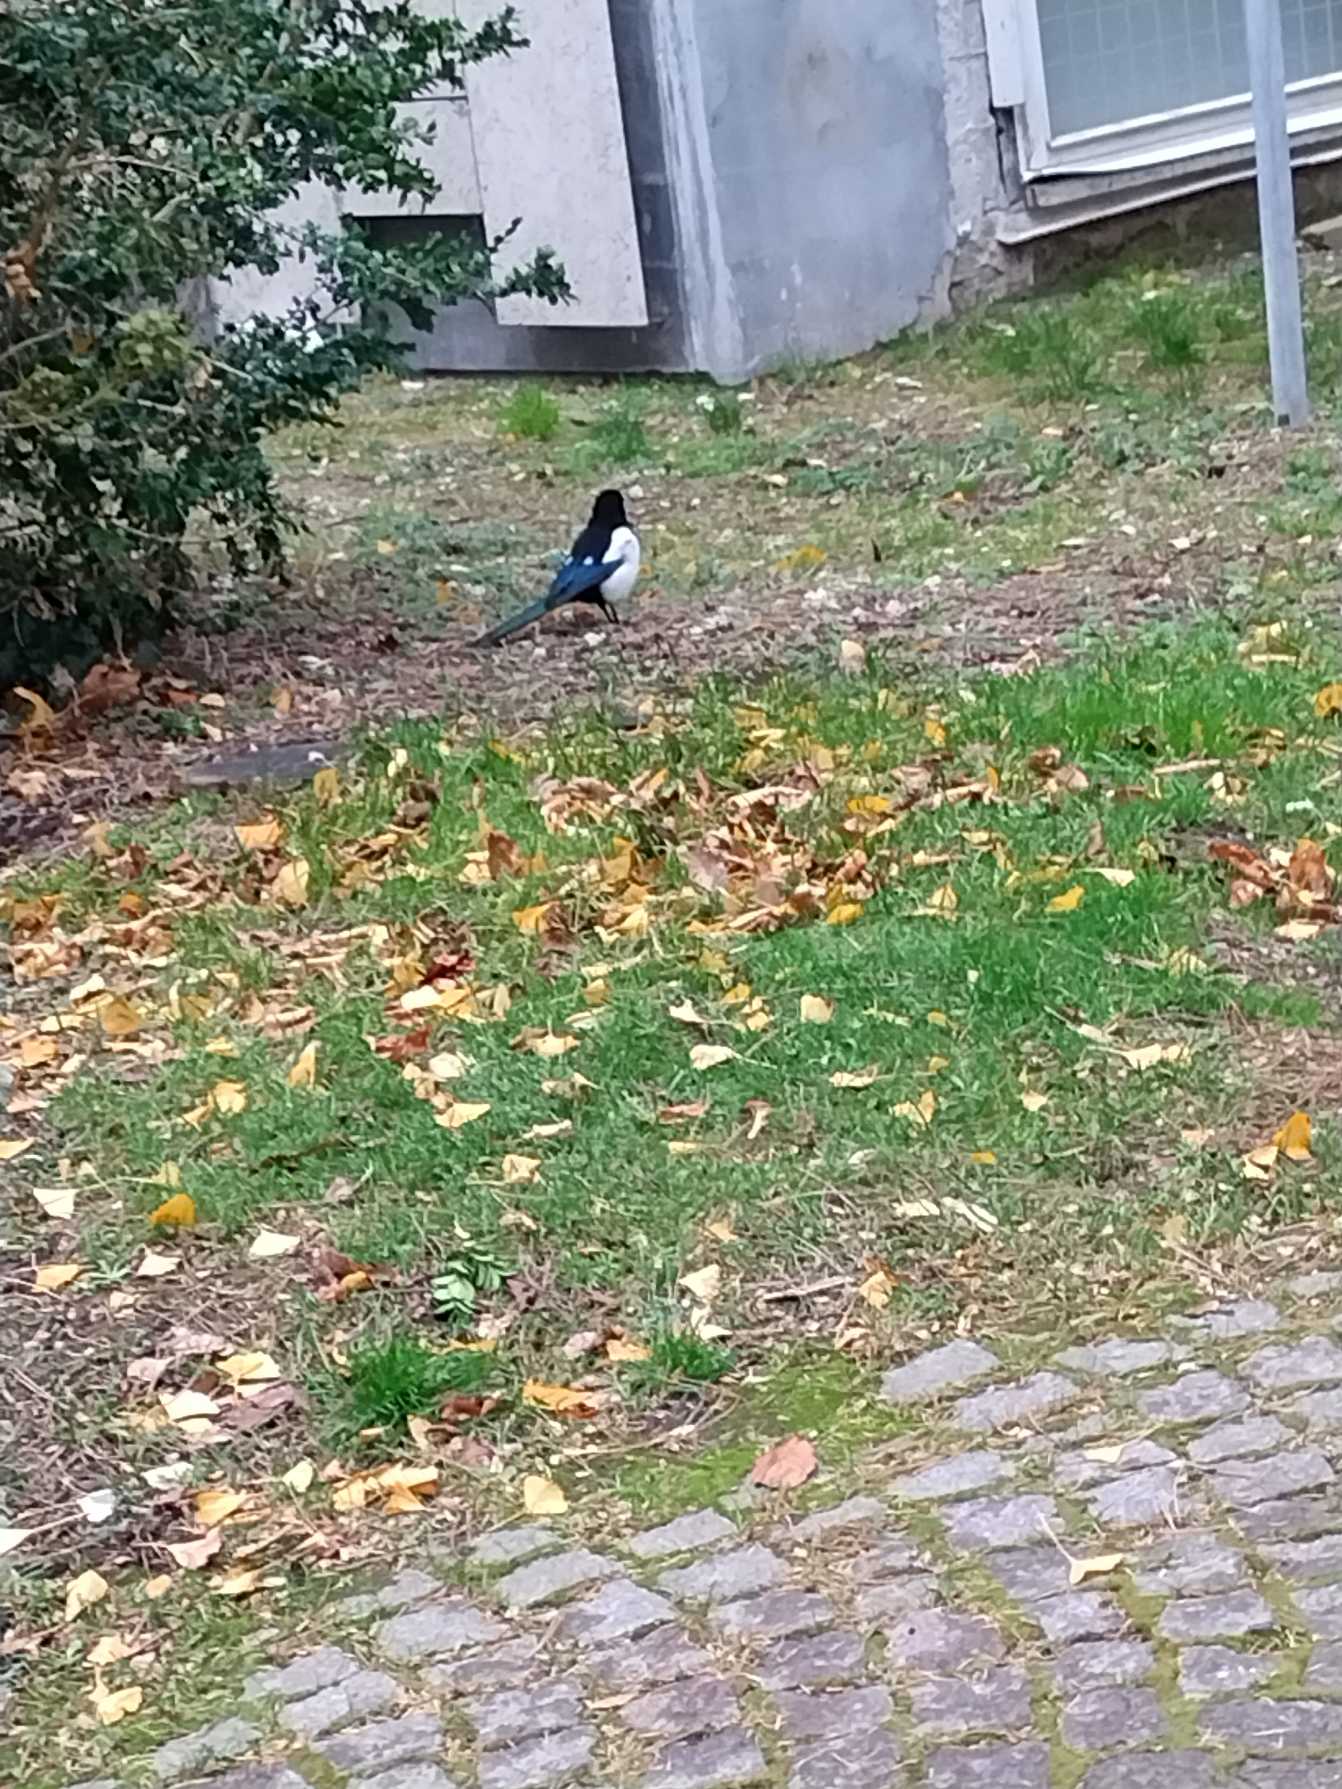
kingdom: Animalia
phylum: Chordata
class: Aves
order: Passeriformes
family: Corvidae
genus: Pica
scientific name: Pica pica
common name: Husskade
